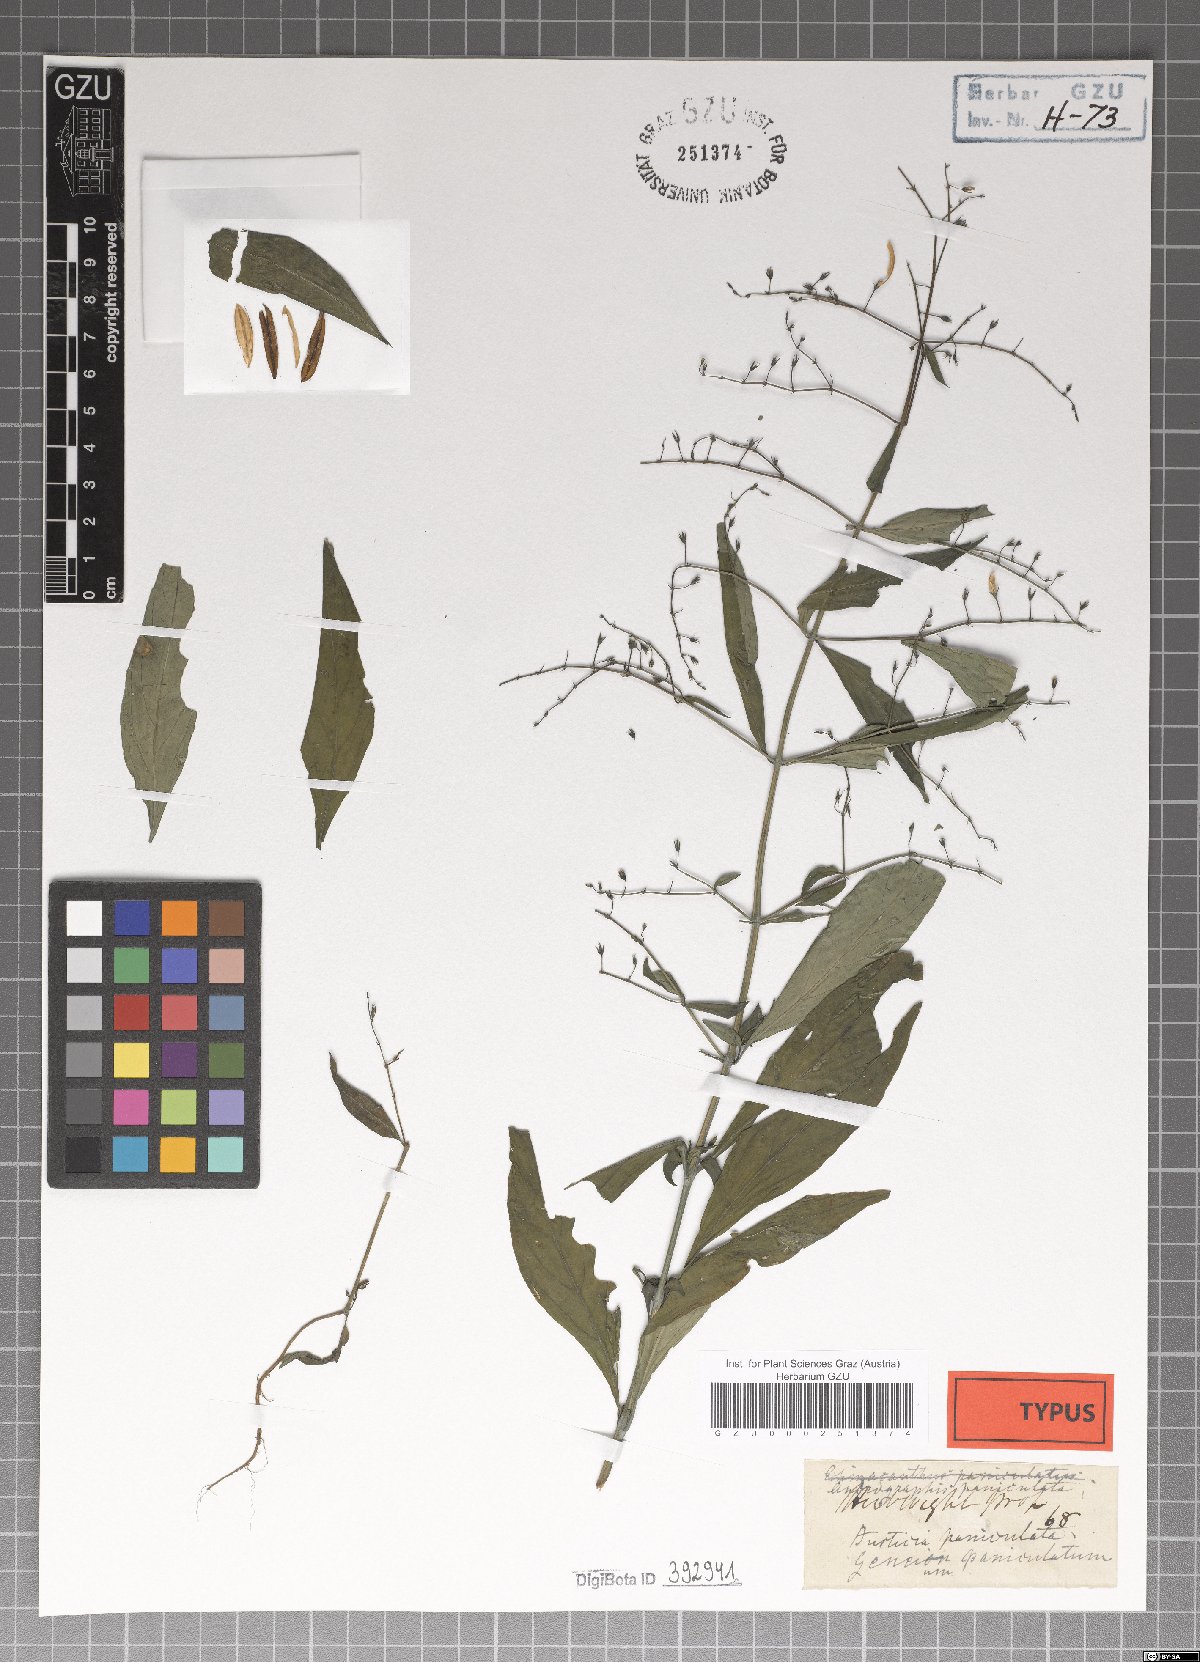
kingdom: Plantae
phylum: Tracheophyta
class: Magnoliopsida
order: Lamiales
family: Acanthaceae
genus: Andrographis
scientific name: Andrographis paniculata
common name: Green chireta
